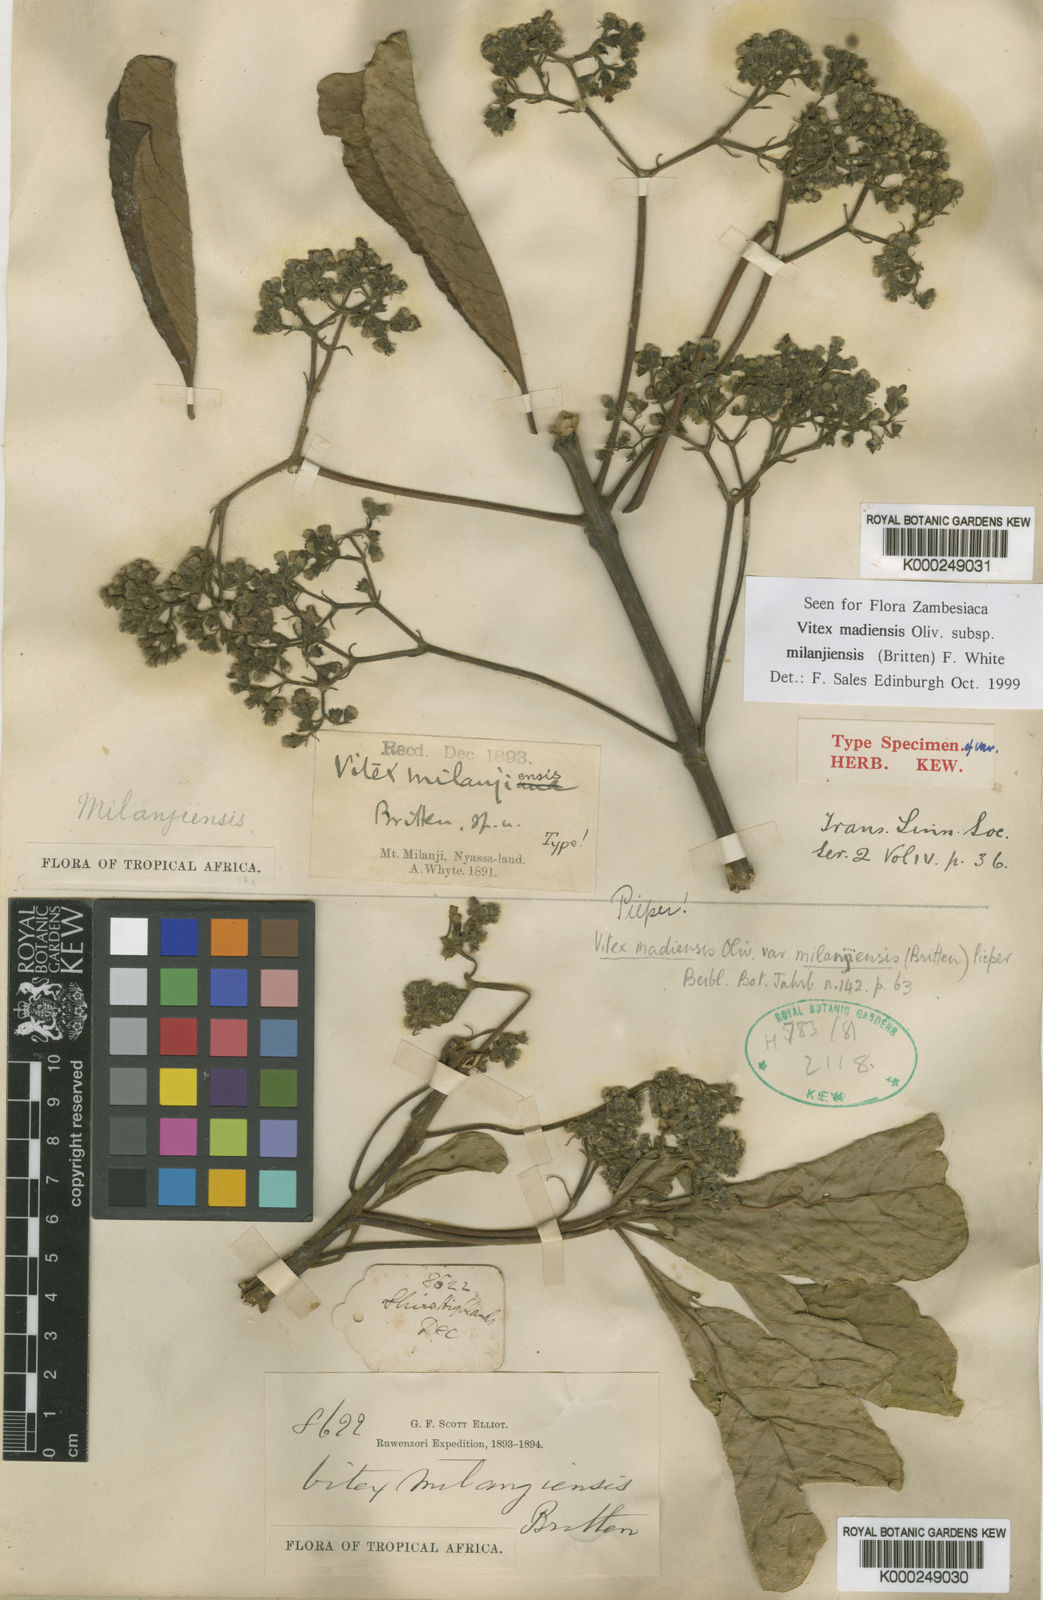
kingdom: Plantae
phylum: Tracheophyta
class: Magnoliopsida
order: Lamiales
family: Lamiaceae
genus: Vitex
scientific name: Vitex madiensis
